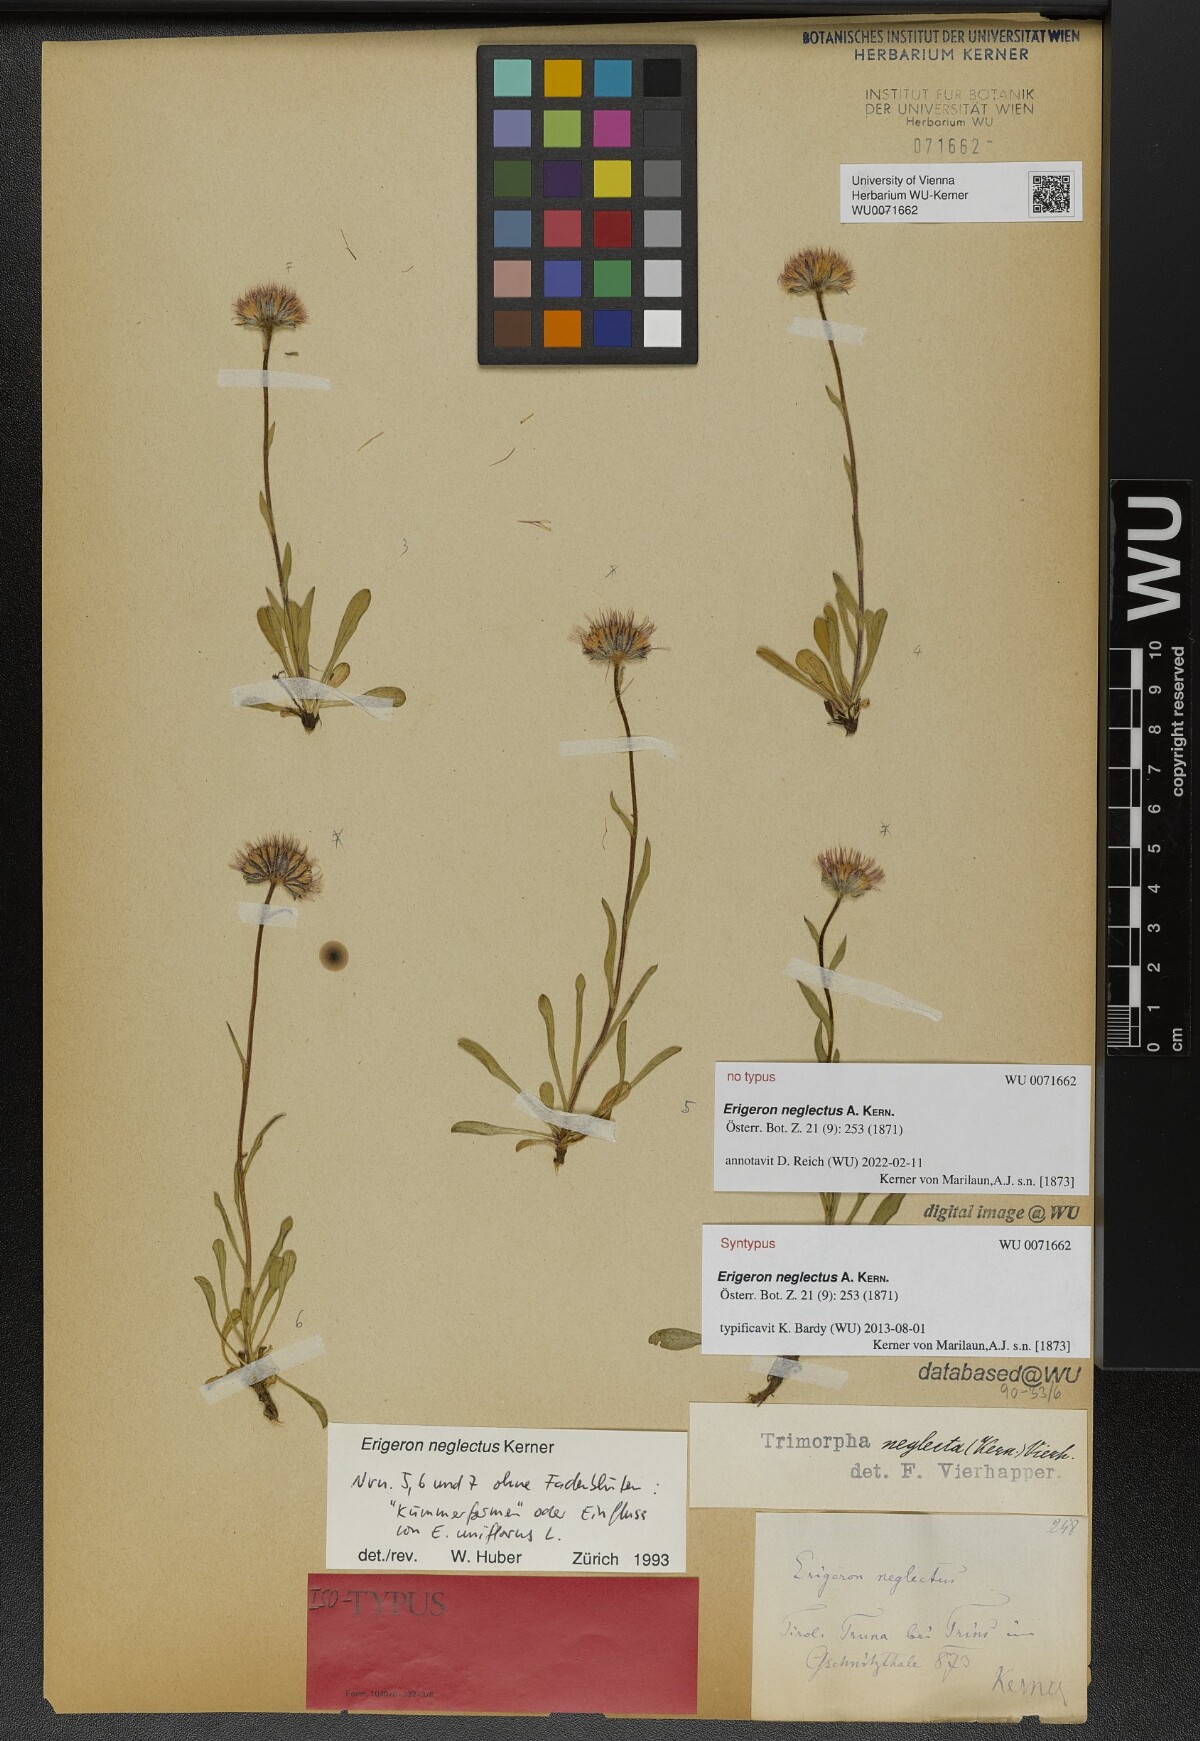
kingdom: Plantae
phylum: Tracheophyta
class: Magnoliopsida
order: Asterales
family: Asteraceae
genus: Erigeron
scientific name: Erigeron neglectus
